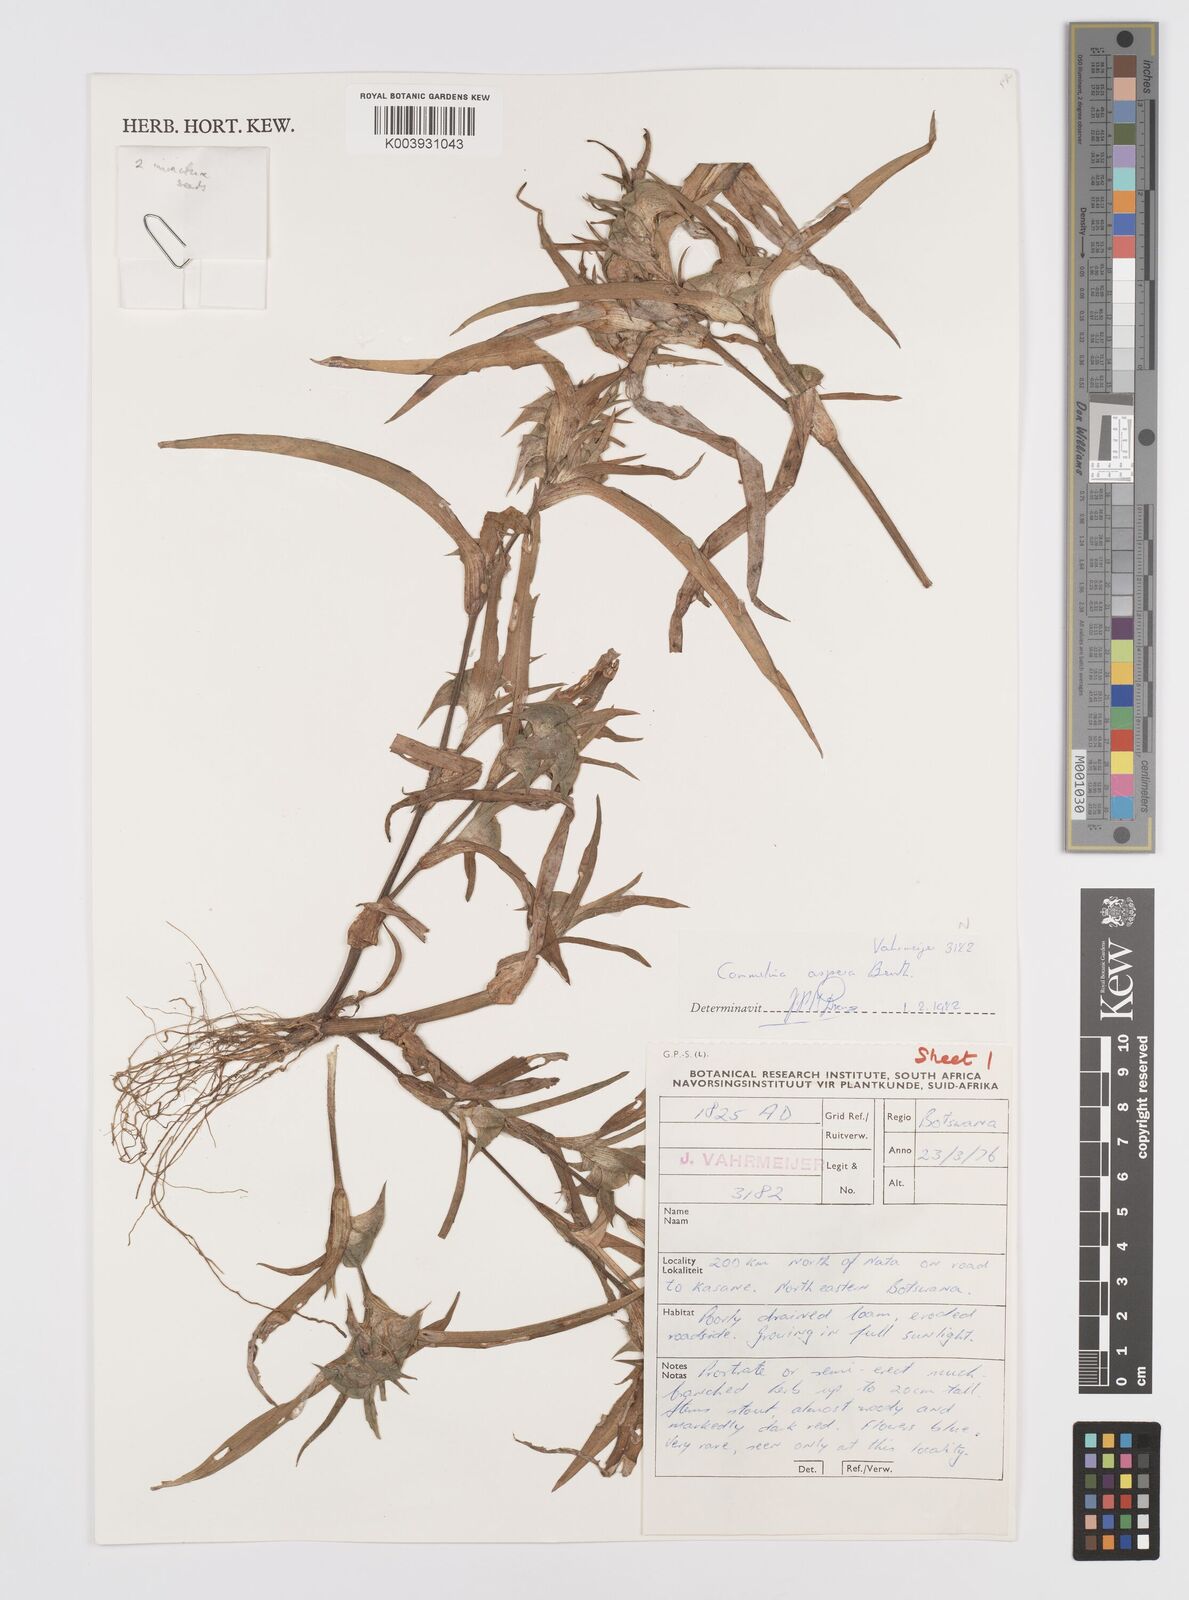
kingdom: Plantae
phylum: Tracheophyta
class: Liliopsida
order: Commelinales
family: Commelinaceae
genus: Commelina
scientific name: Commelina aspera
